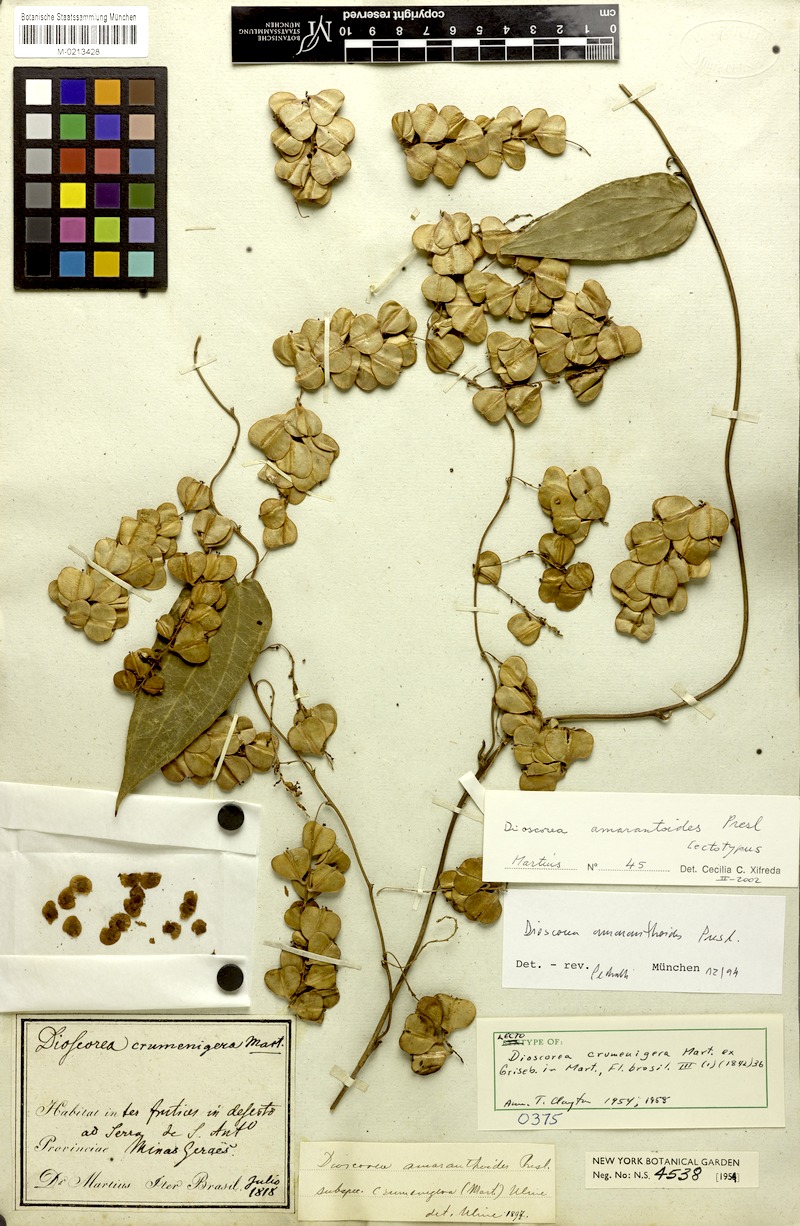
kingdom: Plantae
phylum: Tracheophyta
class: Liliopsida
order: Dioscoreales
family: Dioscoreaceae
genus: Dioscorea
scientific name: Dioscorea amaranthoides
